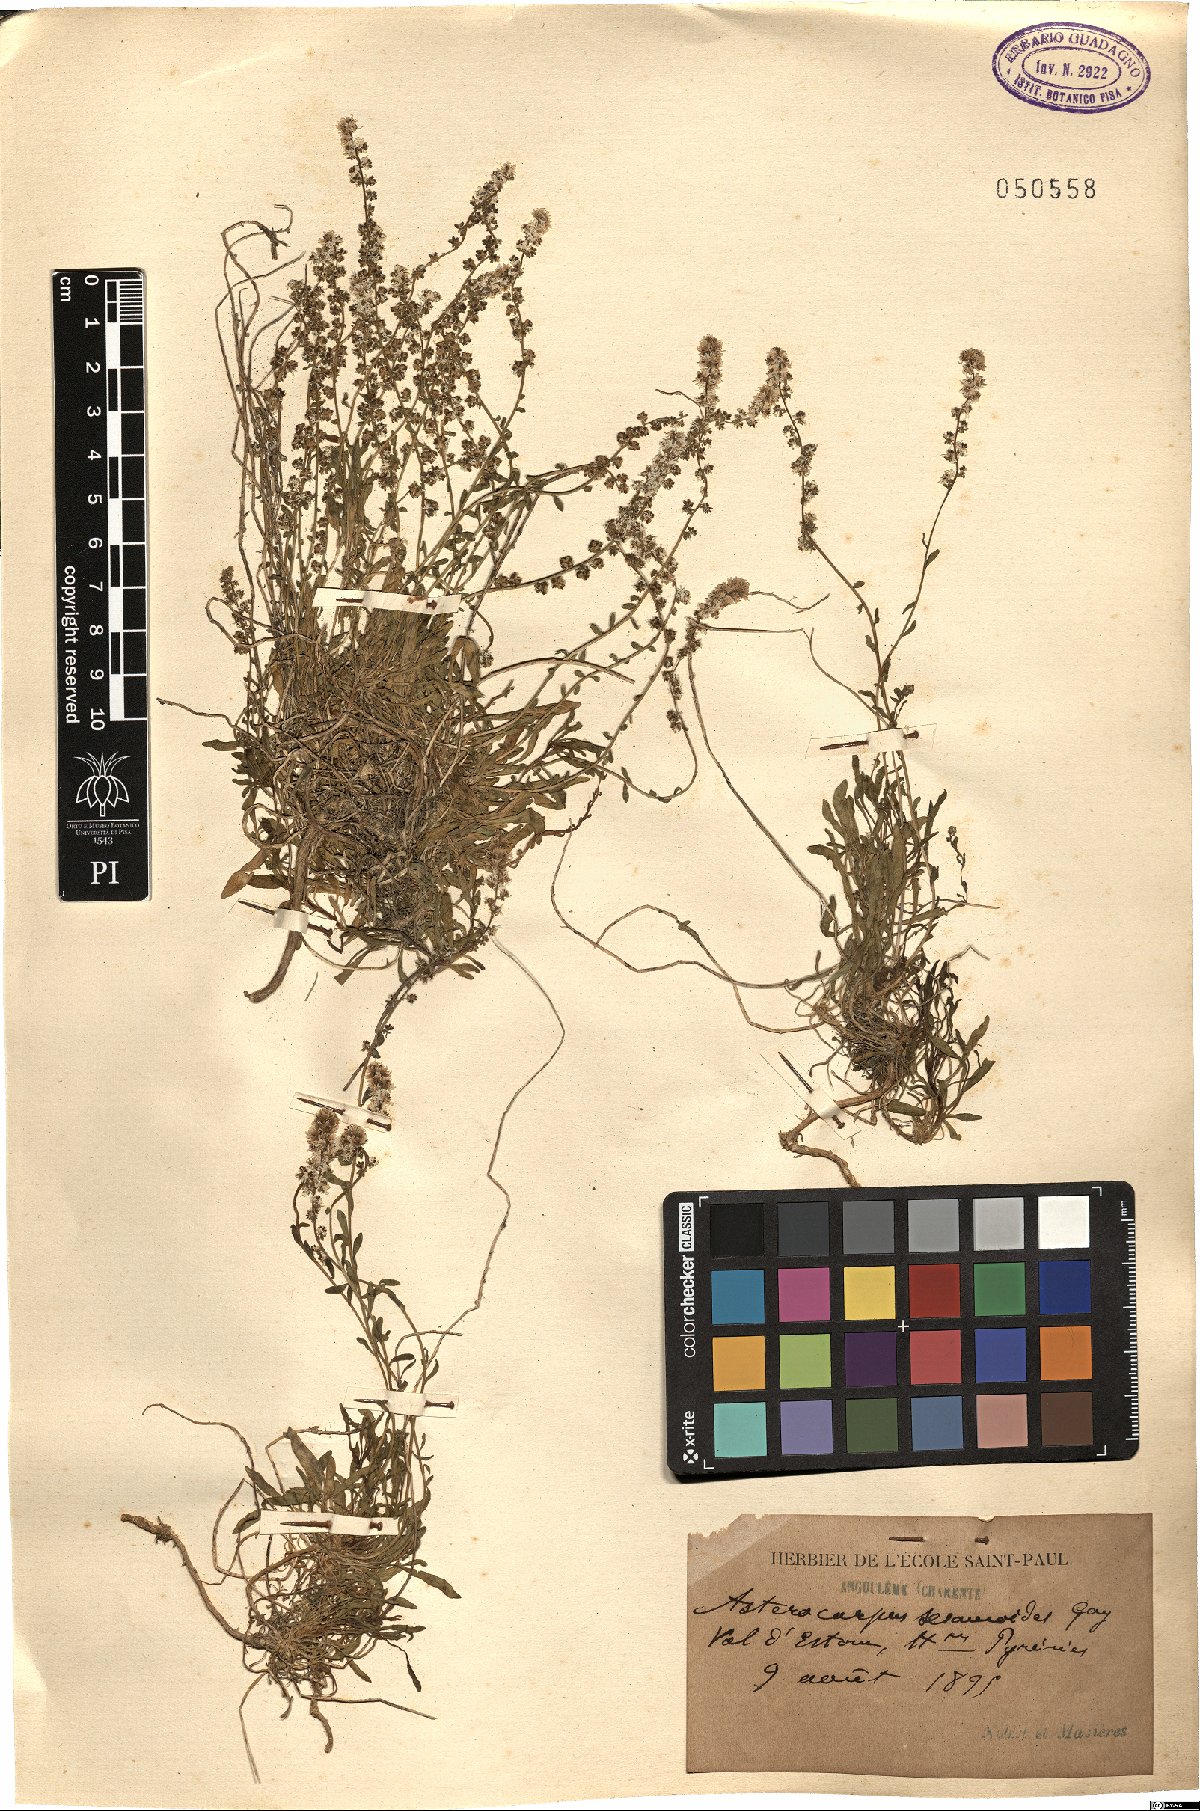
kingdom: Plantae
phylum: Tracheophyta
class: Magnoliopsida
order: Brassicales
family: Resedaceae
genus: Sesamoides
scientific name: Sesamoides interrupta
